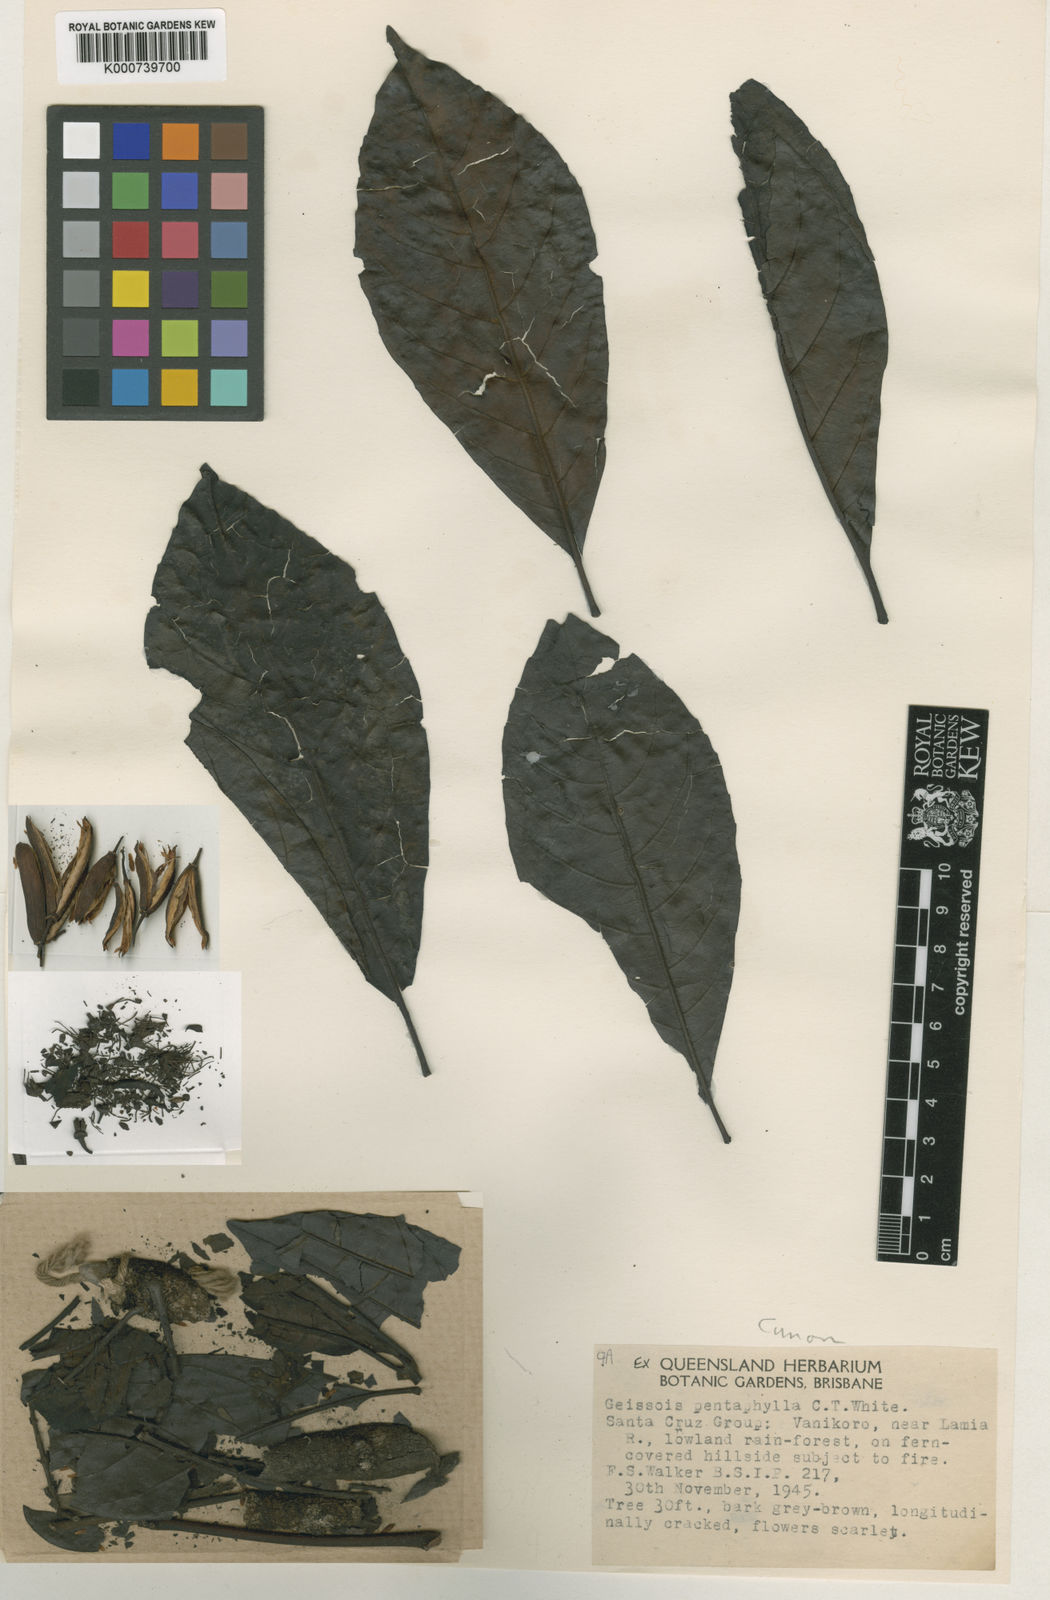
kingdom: Plantae
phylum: Tracheophyta
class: Magnoliopsida
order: Oxalidales
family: Cunoniaceae
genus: Geissois
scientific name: Geissois pentaphylla
